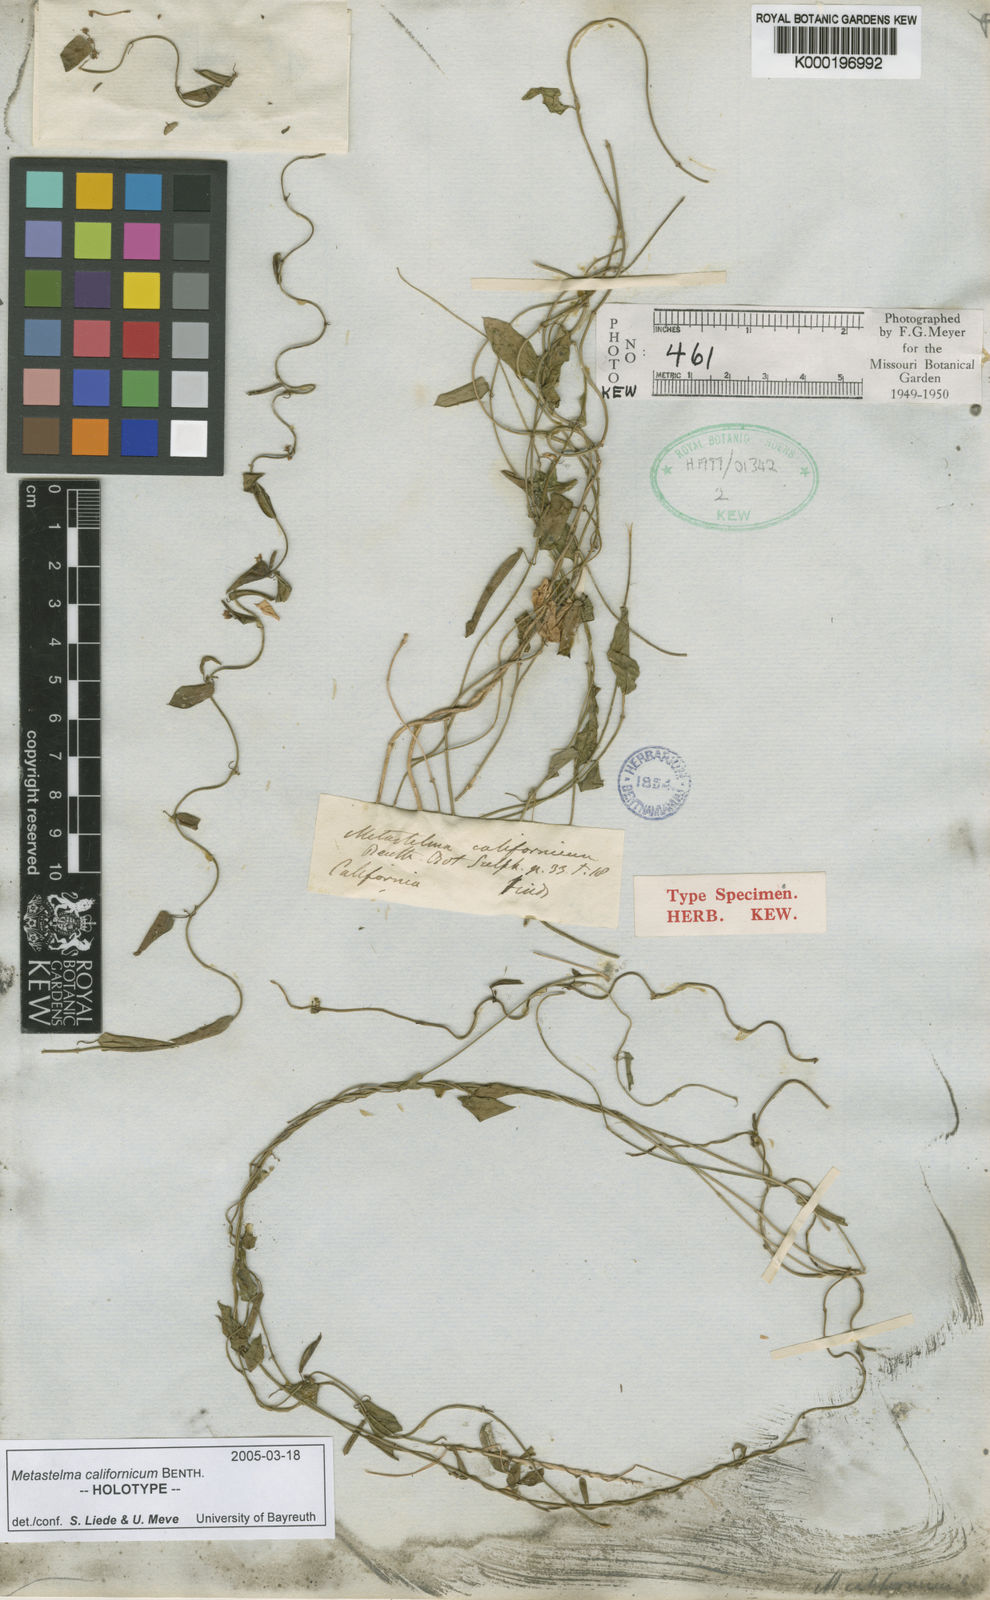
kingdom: Plantae
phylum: Tracheophyta
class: Magnoliopsida
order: Gentianales
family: Apocynaceae
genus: Metastelma
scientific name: Metastelma californicum
